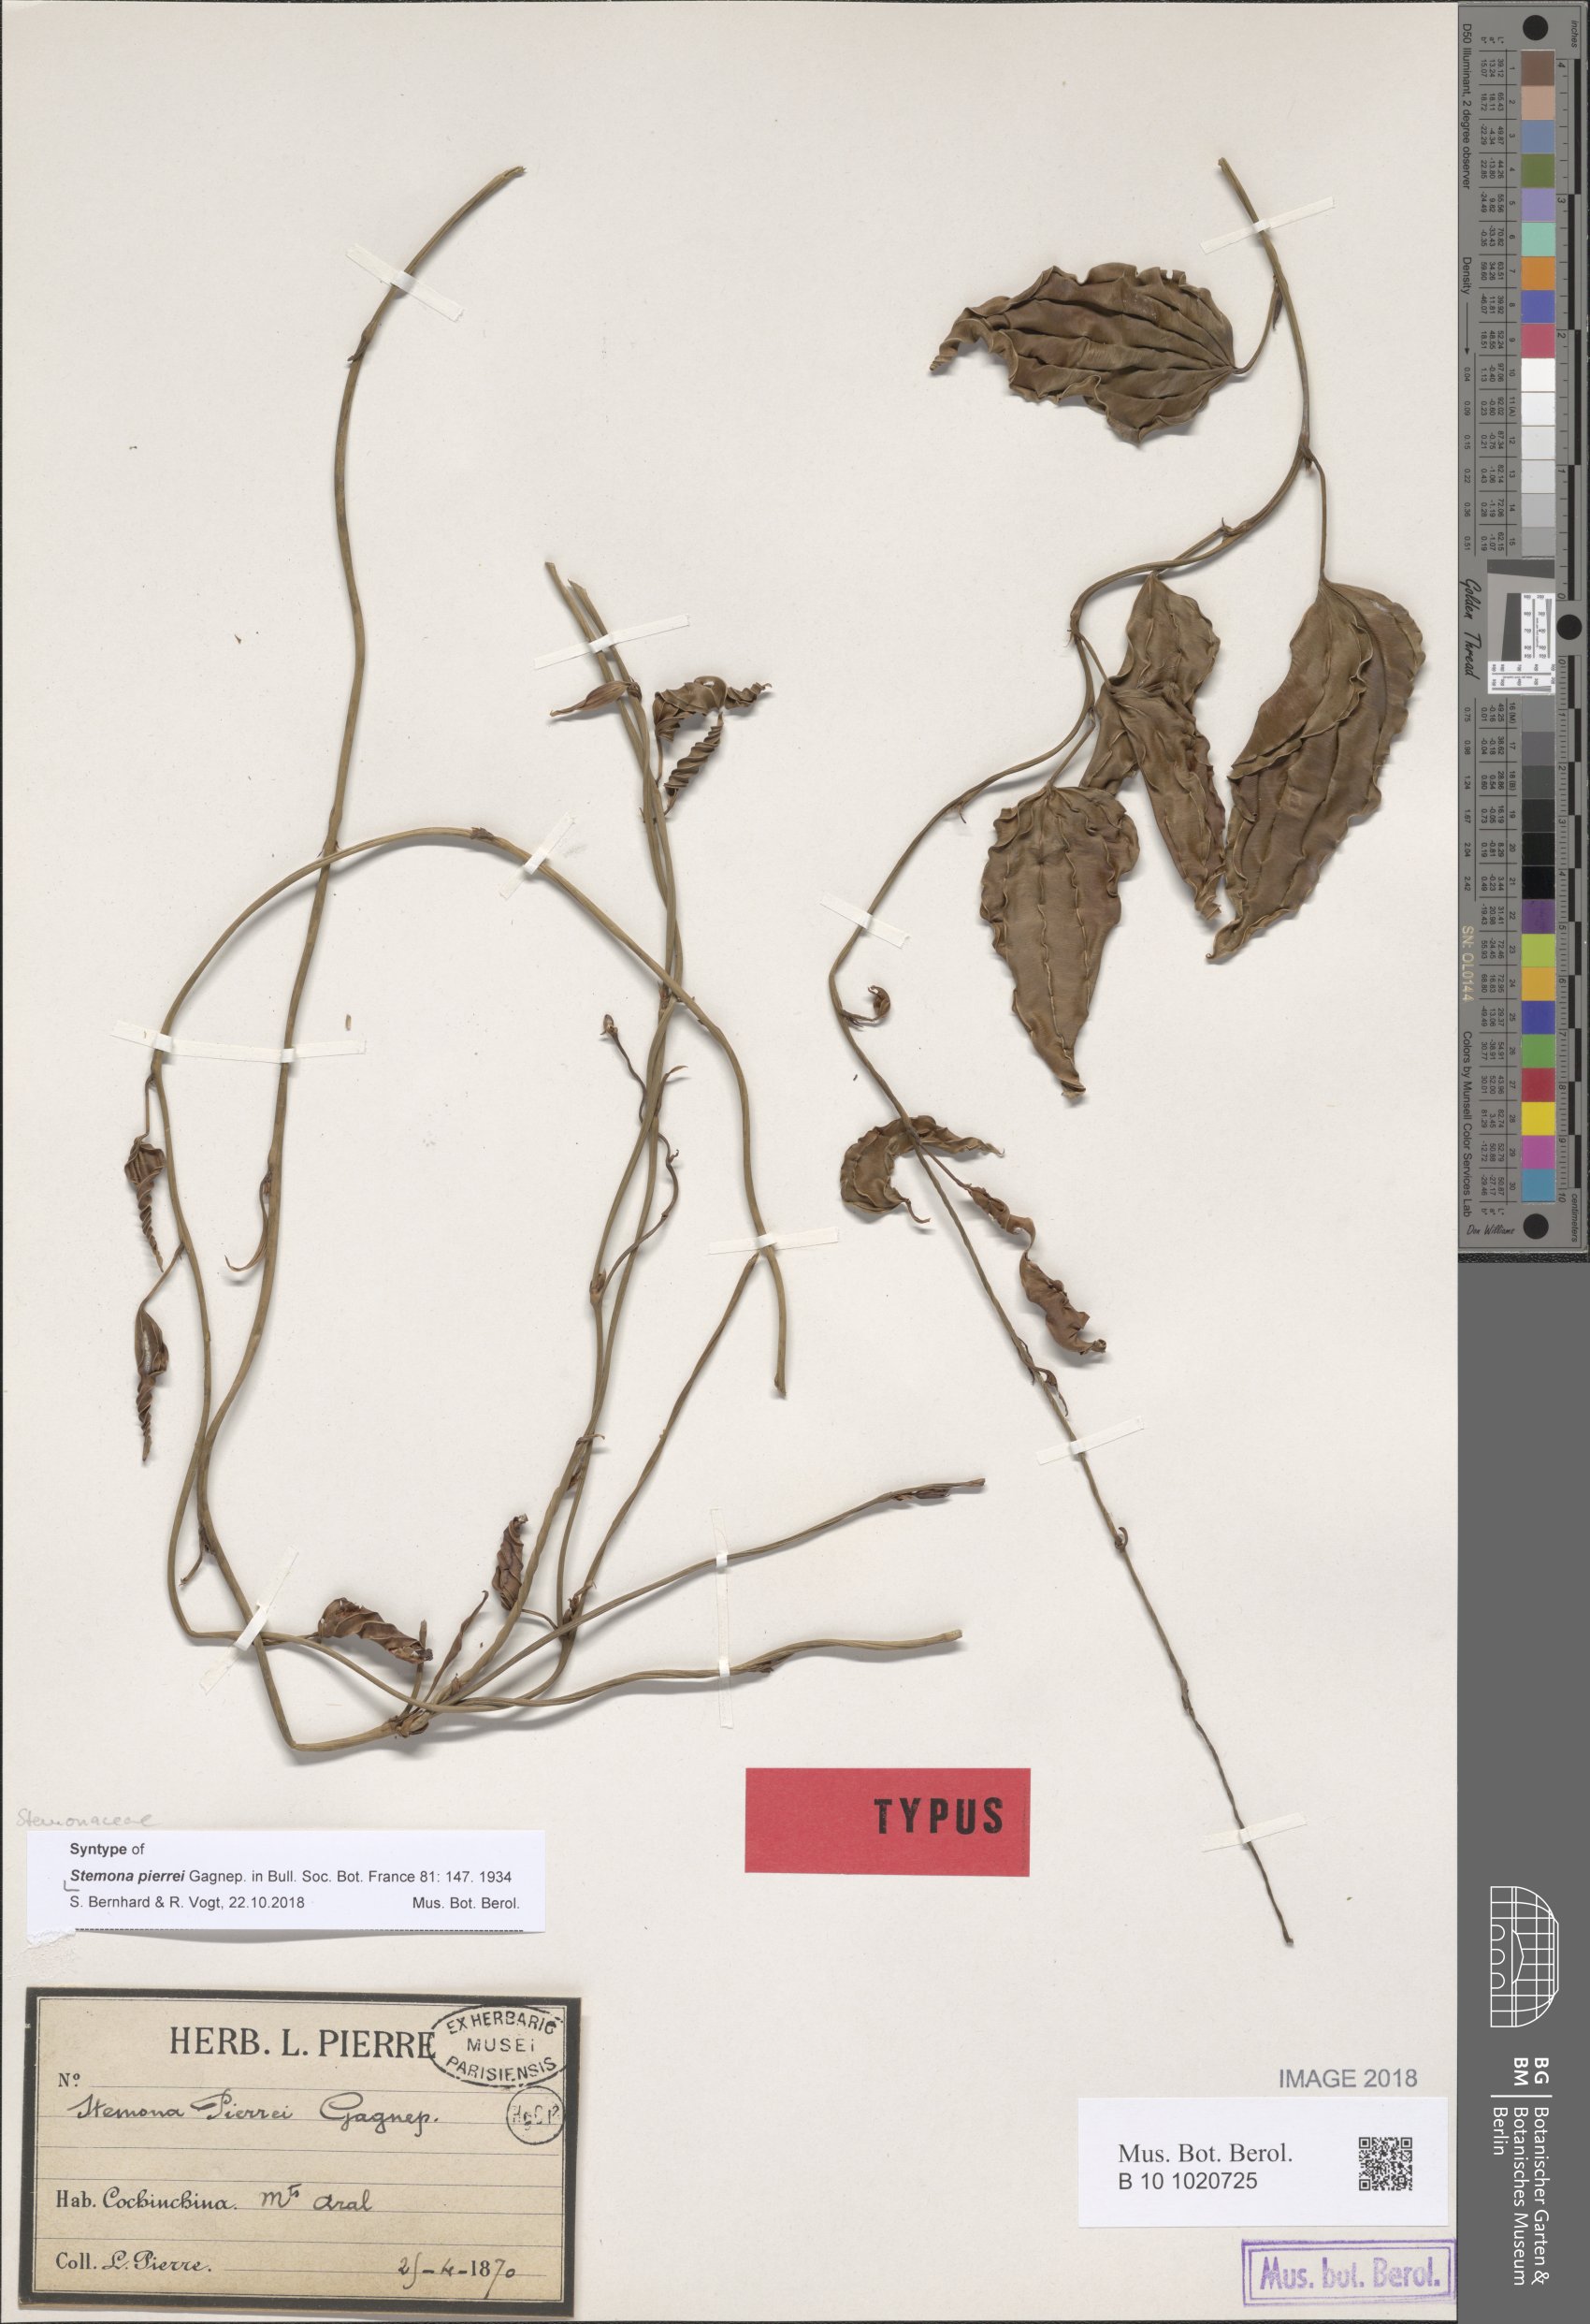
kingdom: Plantae
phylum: Tracheophyta
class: Liliopsida
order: Pandanales
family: Stemonaceae
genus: Stemona
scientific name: Stemona pierrei
